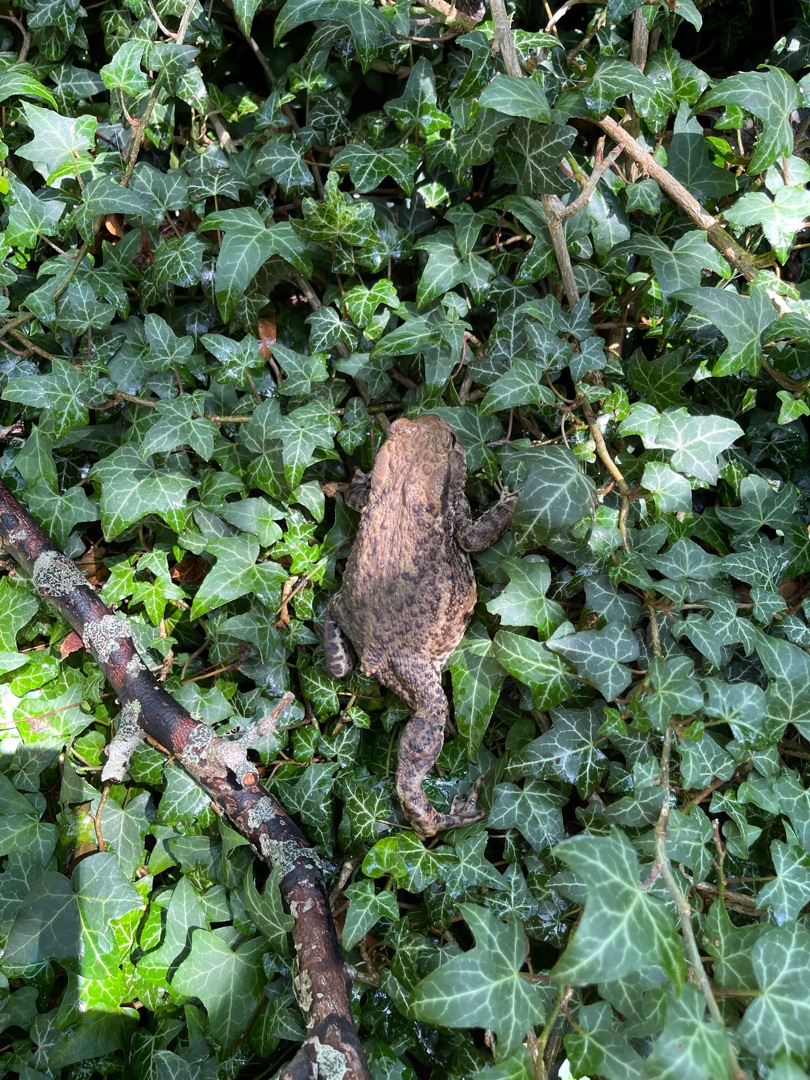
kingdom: Animalia
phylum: Chordata
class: Amphibia
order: Anura
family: Bufonidae
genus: Bufo
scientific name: Bufo bufo
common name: Skrubtudse
